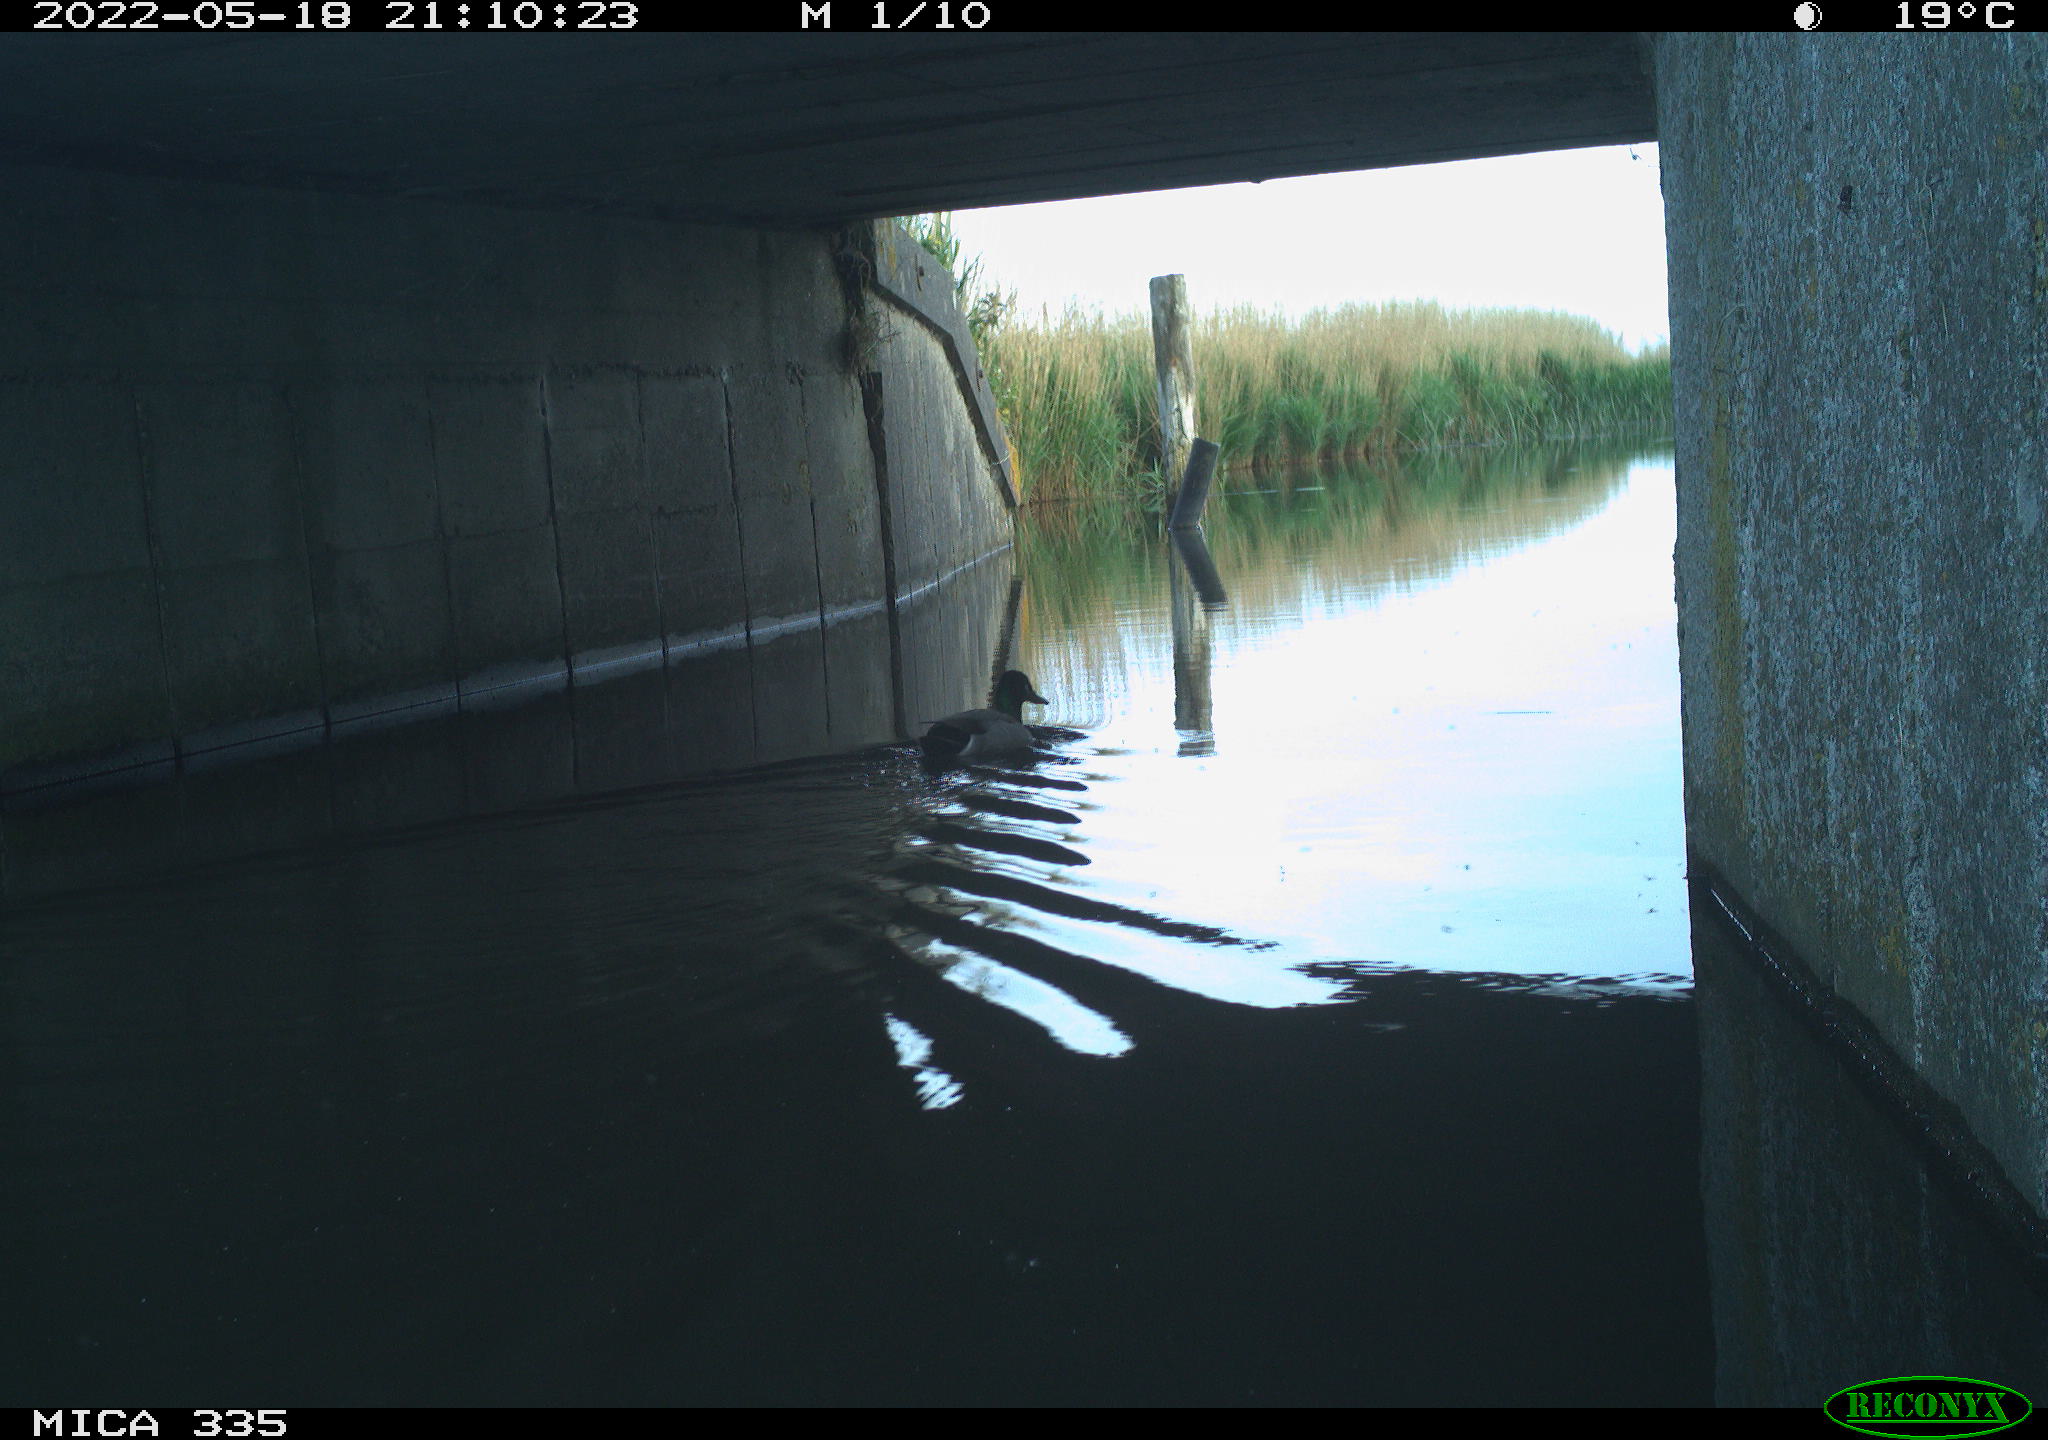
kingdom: Animalia
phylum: Chordata
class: Aves
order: Anseriformes
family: Anatidae
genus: Anas
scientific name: Anas platyrhynchos
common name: Mallard
